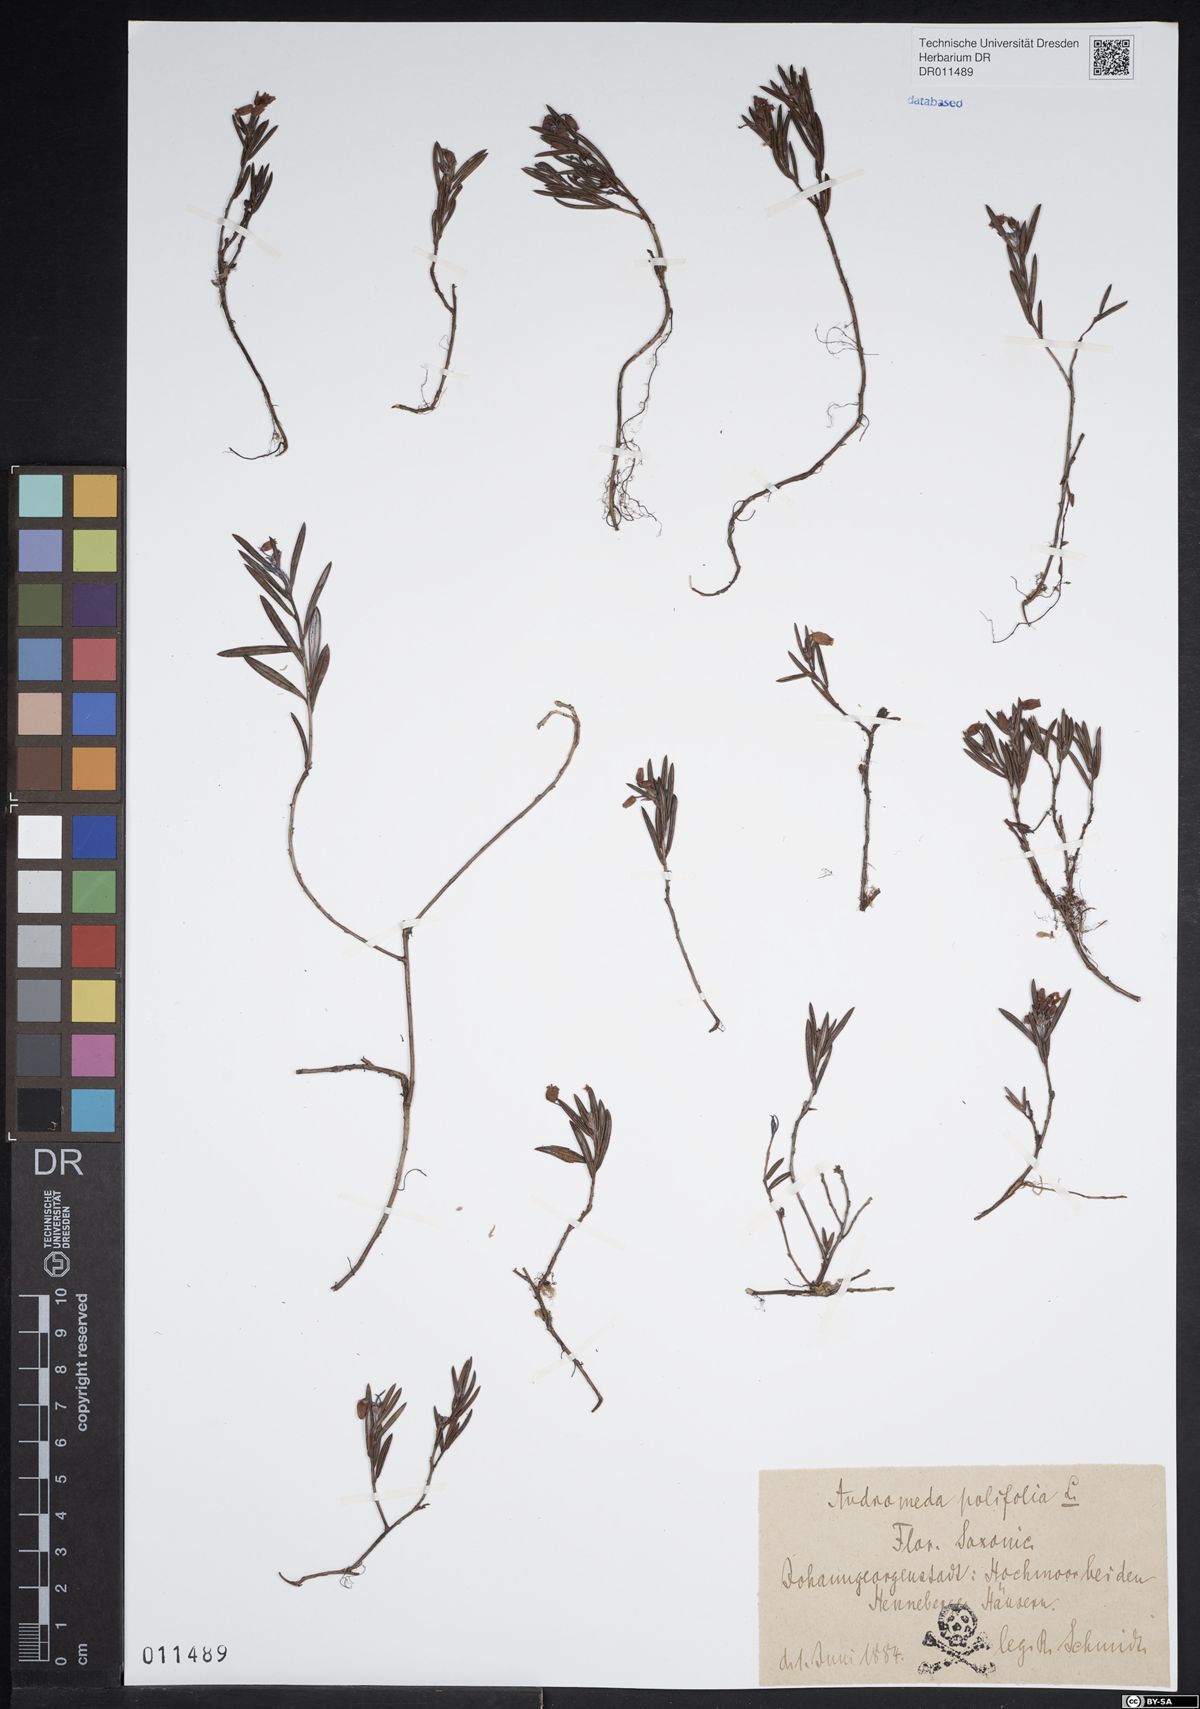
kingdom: Plantae
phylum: Tracheophyta
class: Magnoliopsida
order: Ericales
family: Ericaceae
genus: Andromeda
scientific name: Andromeda polifolia
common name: Bog-rosemary
